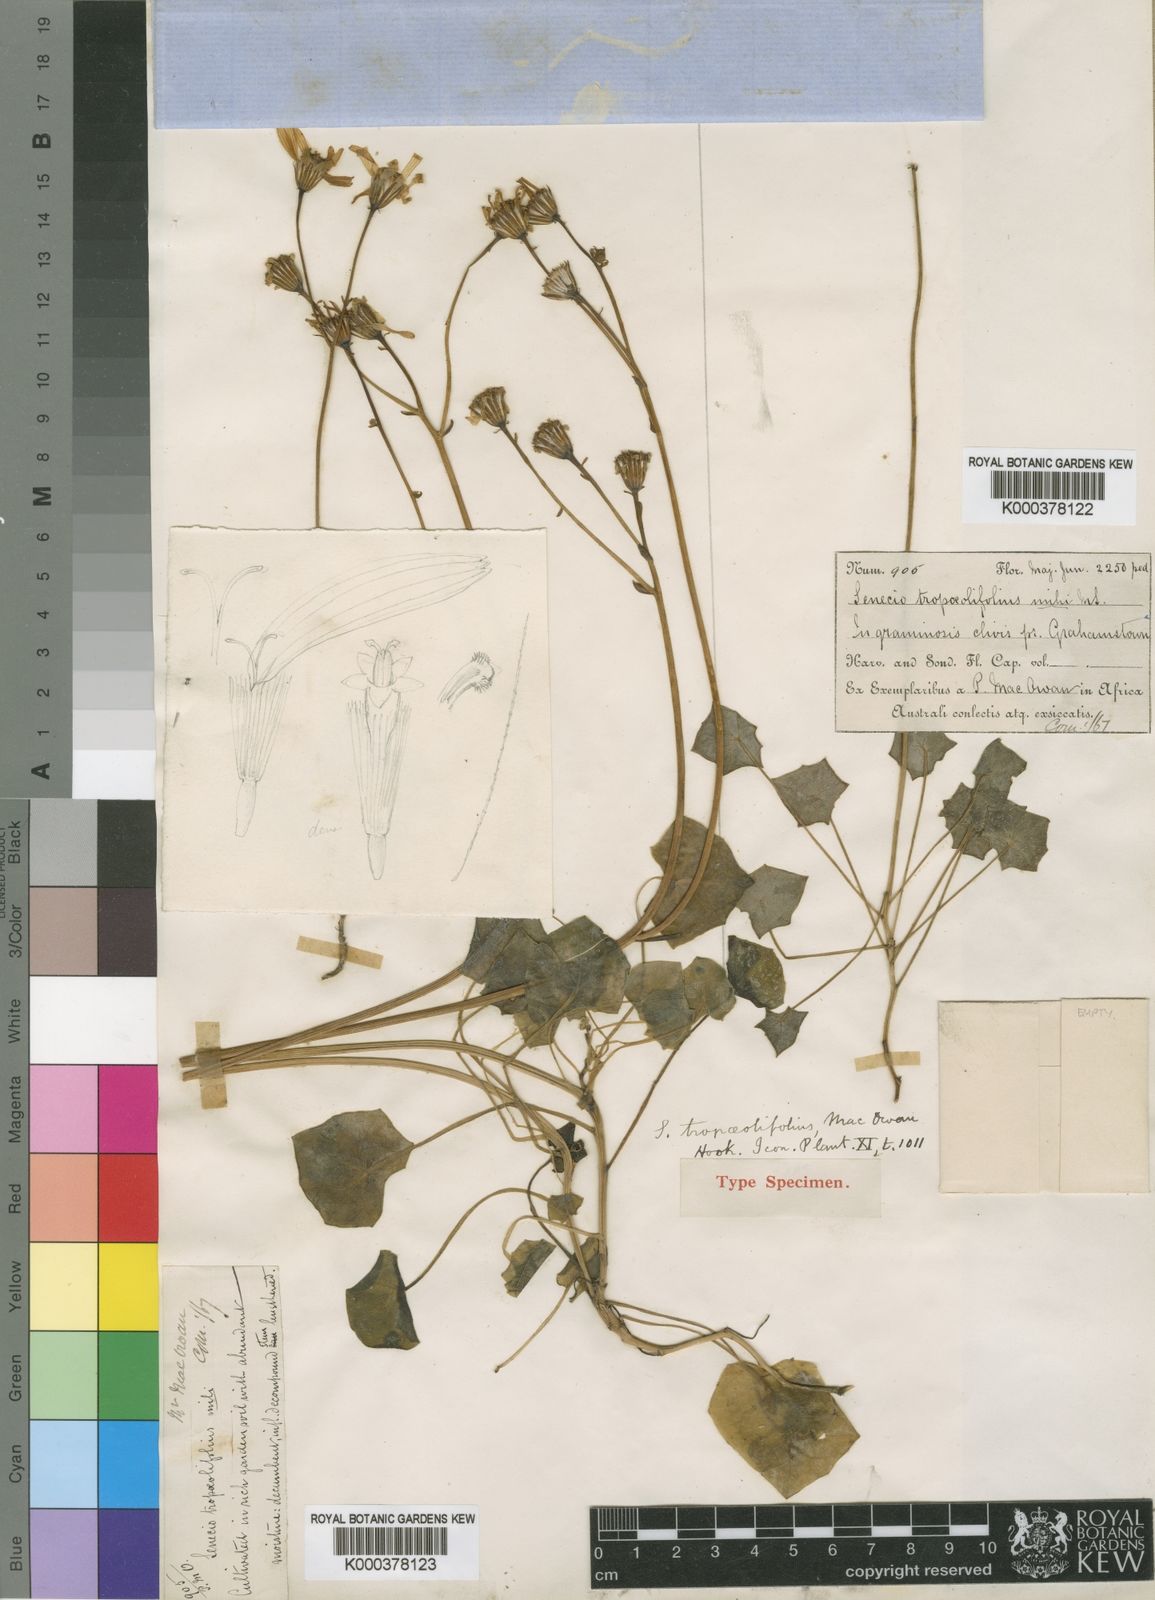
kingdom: Plantae
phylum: Tracheophyta
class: Magnoliopsida
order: Asterales
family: Asteraceae
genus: Senecio
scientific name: Senecio
